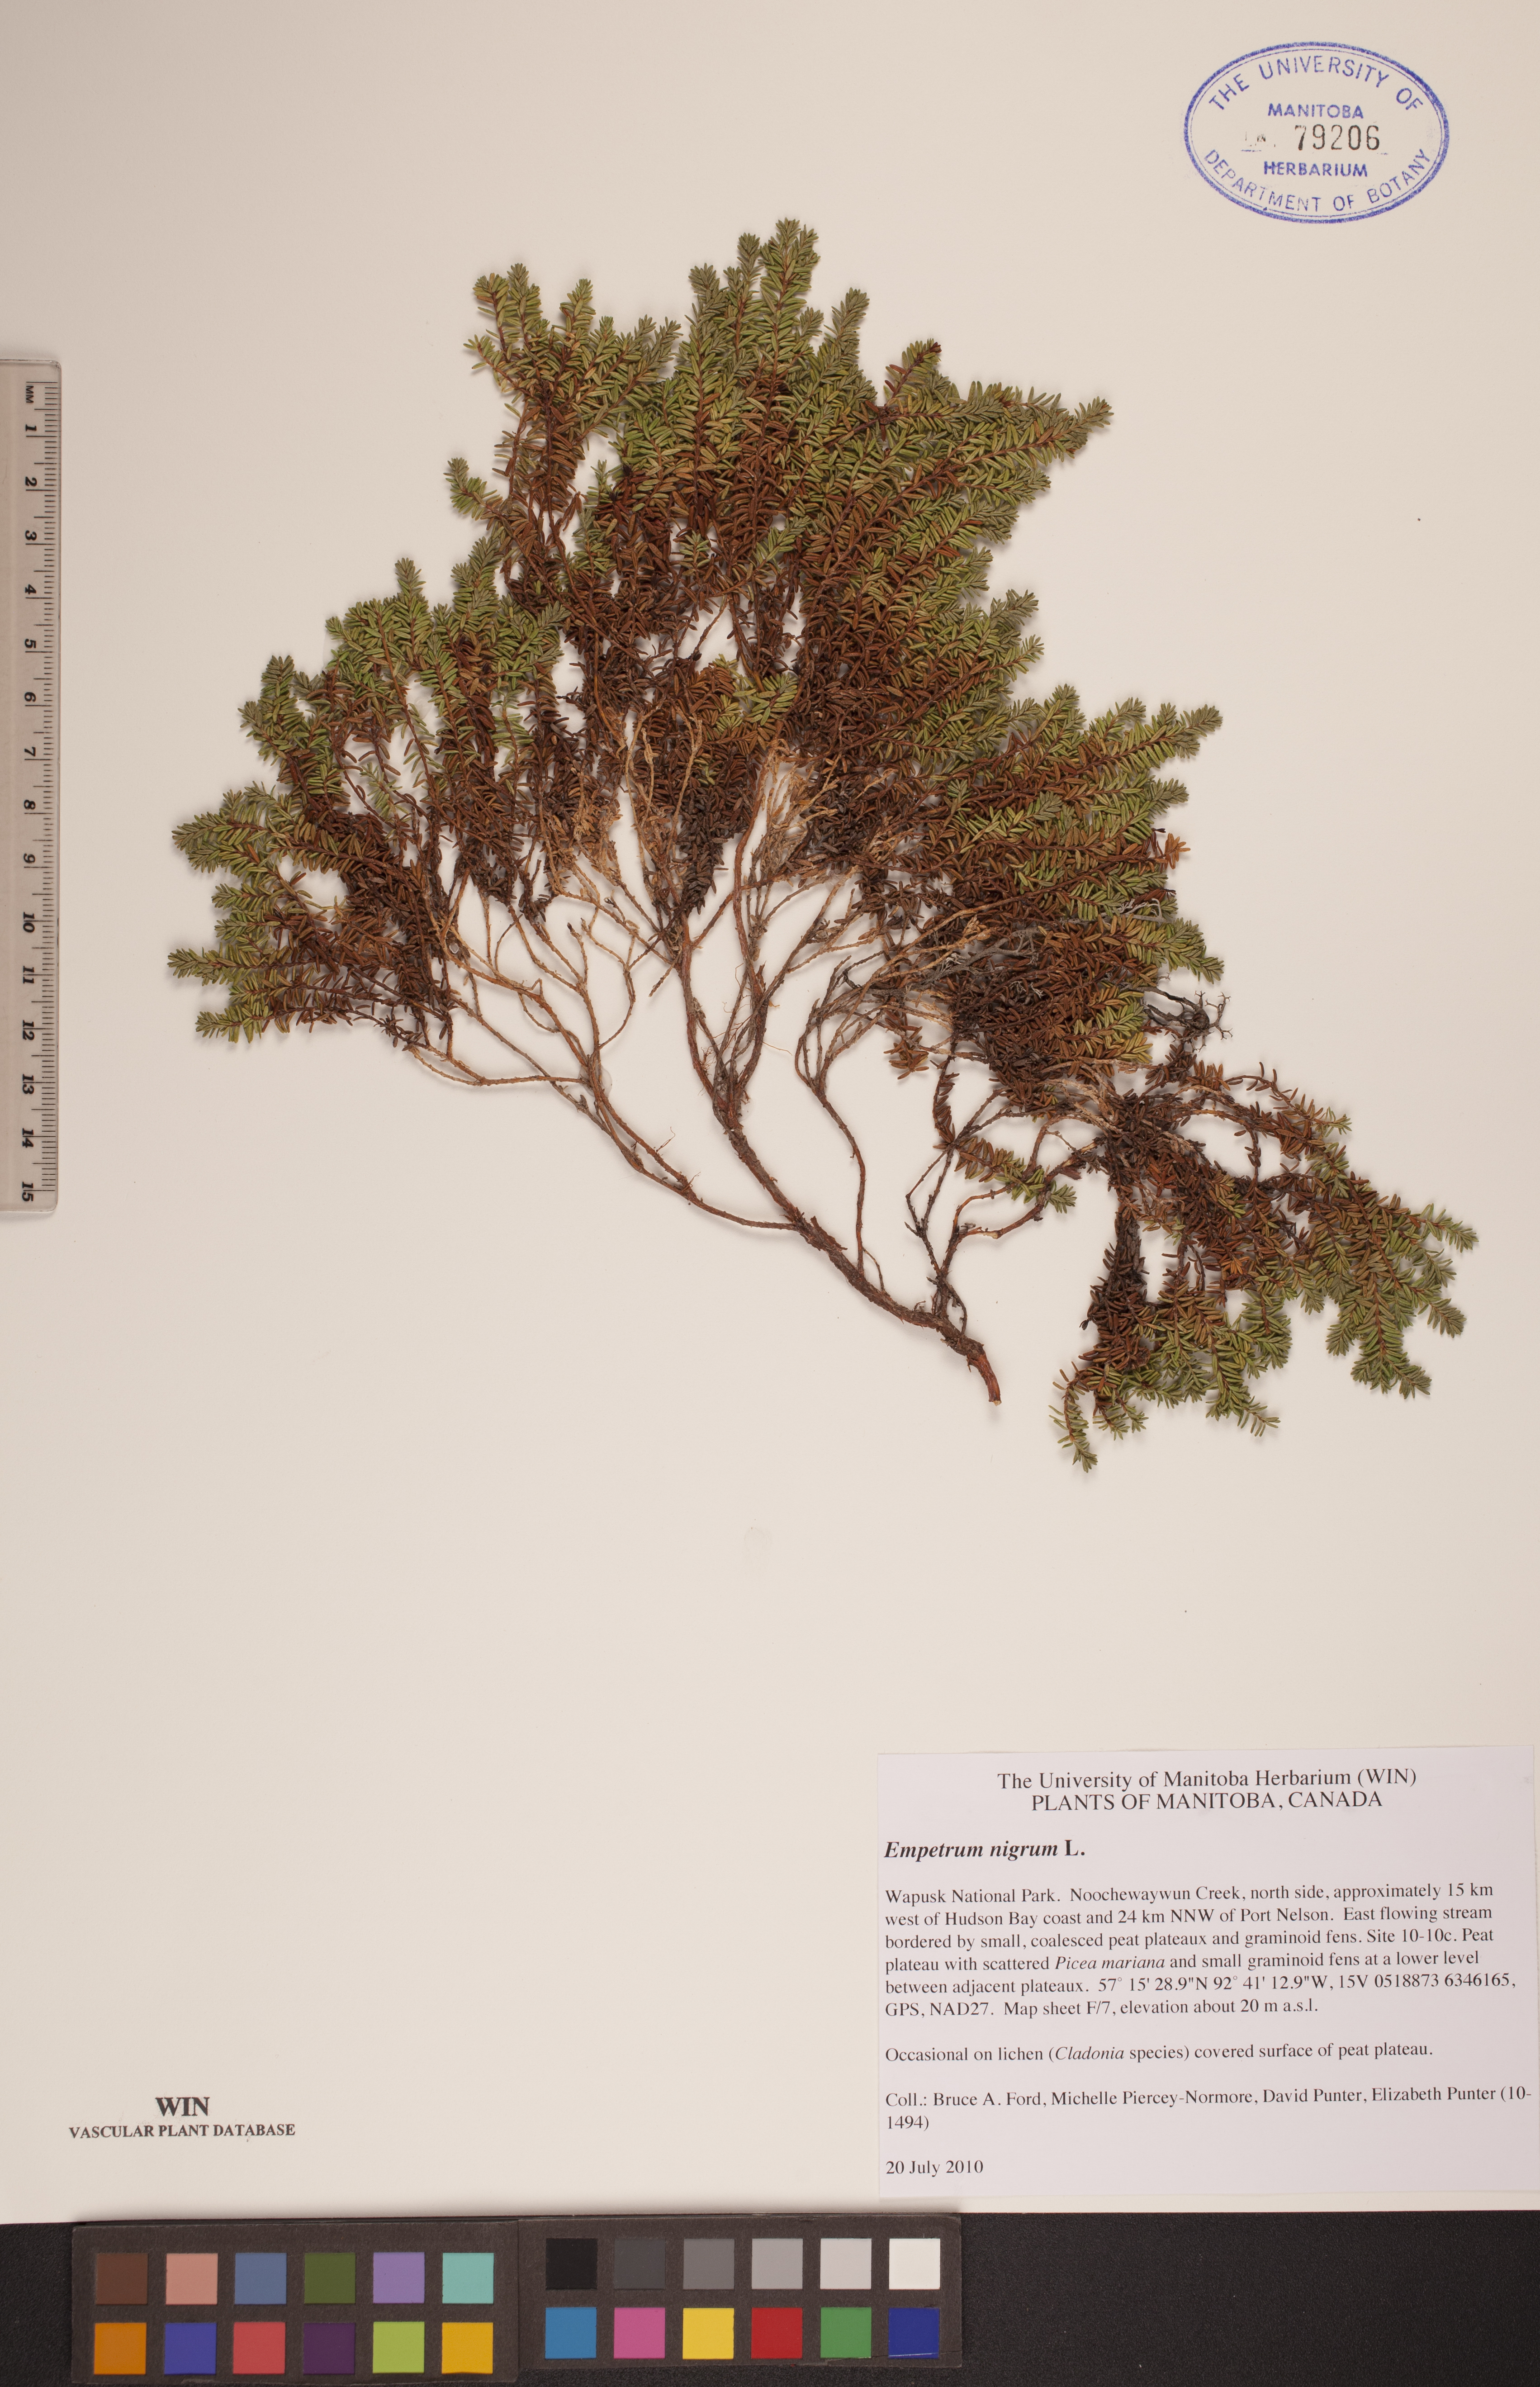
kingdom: Plantae
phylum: Tracheophyta
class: Magnoliopsida
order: Ericales
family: Ericaceae
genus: Empetrum
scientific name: Empetrum nigrum
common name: Black crowberry
